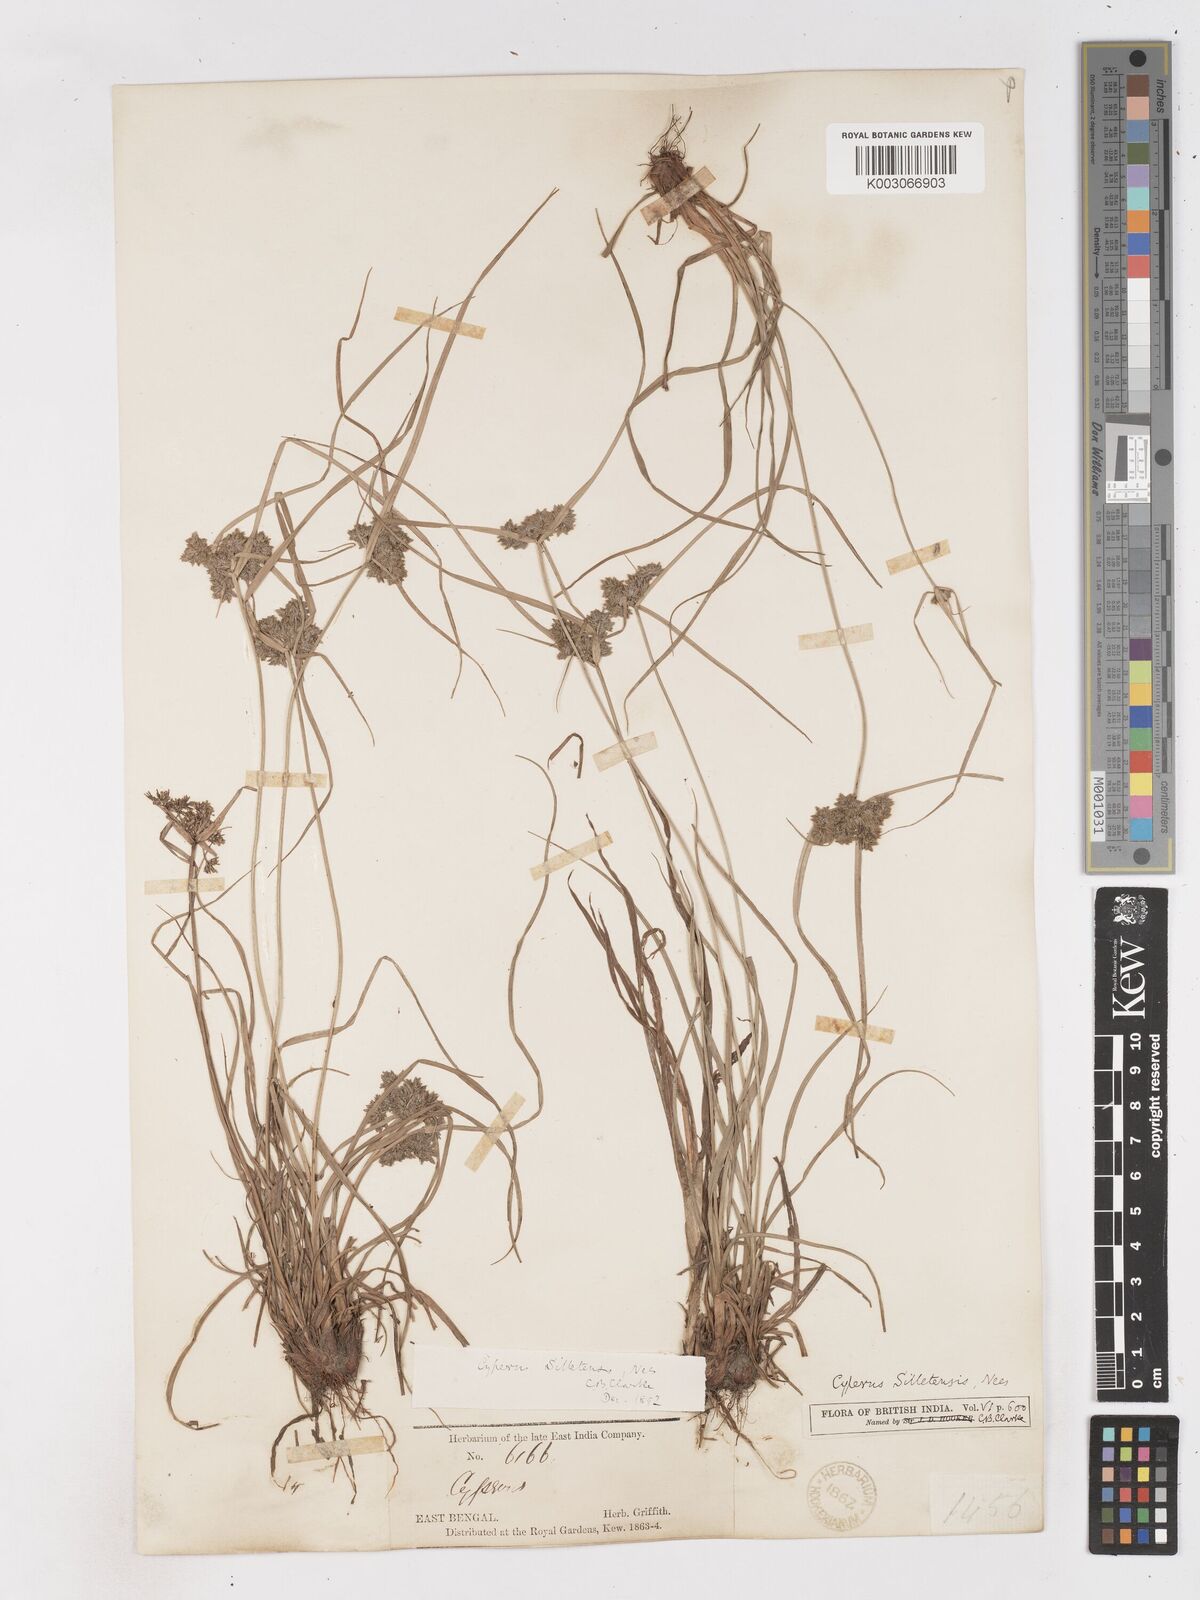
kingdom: Plantae
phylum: Tracheophyta
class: Liliopsida
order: Poales
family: Cyperaceae
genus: Cyperus
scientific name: Cyperus silletensis
